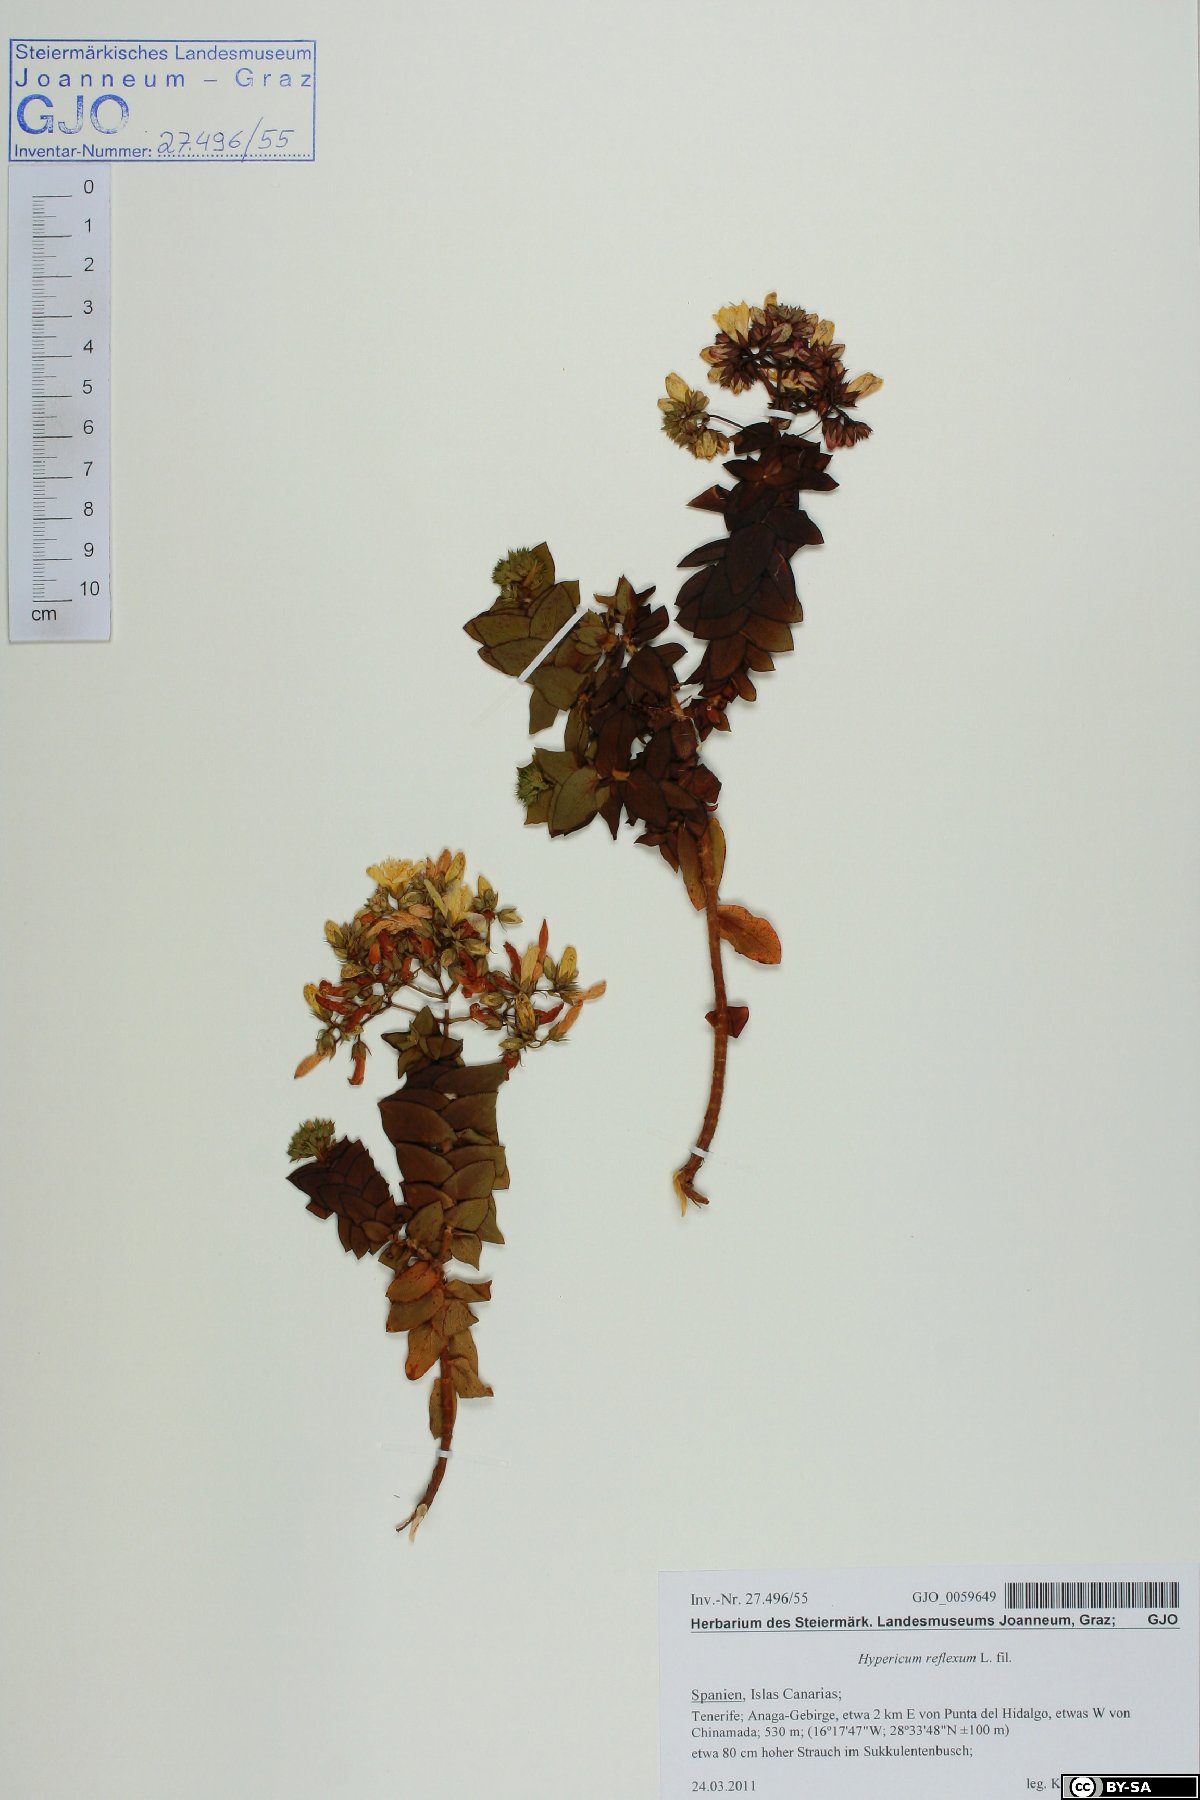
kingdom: Plantae
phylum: Tracheophyta
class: Magnoliopsida
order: Malpighiales
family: Hypericaceae
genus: Hypericum
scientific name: Hypericum reflexum
